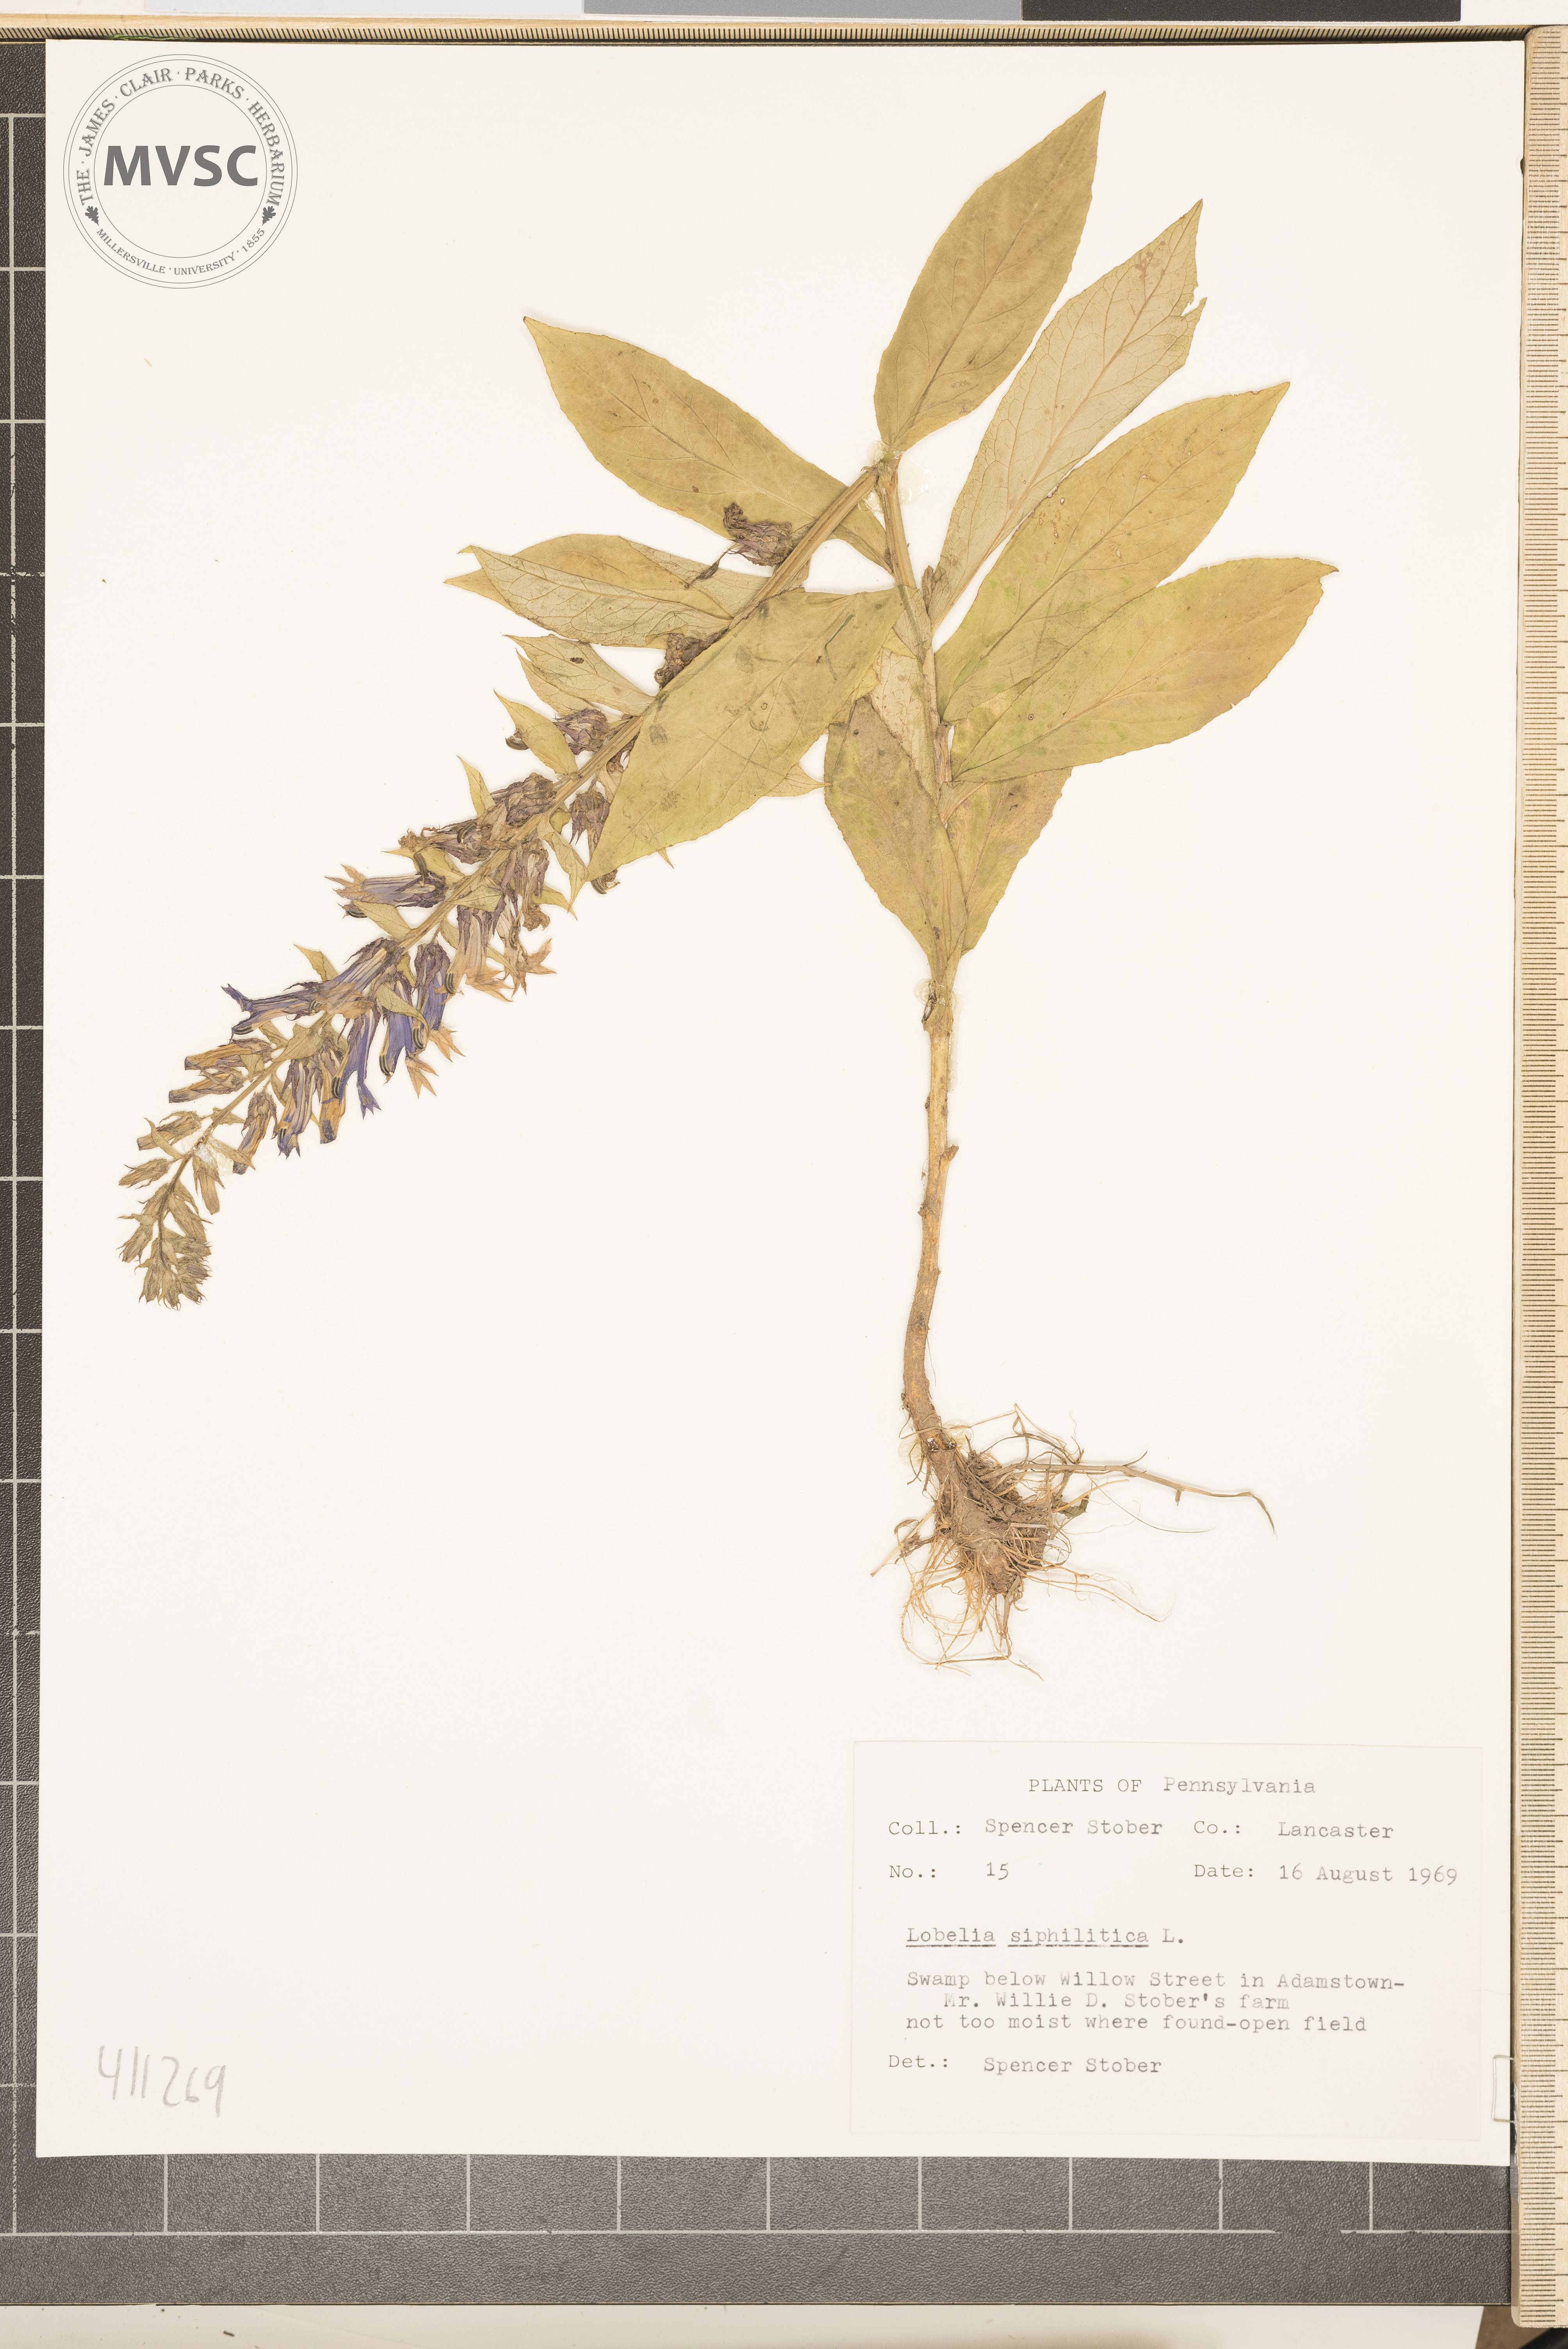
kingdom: Plantae
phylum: Tracheophyta
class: Magnoliopsida
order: Asterales
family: Campanulaceae
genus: Lobelia
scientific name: Lobelia siphilitica
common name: Great blue lobelia
